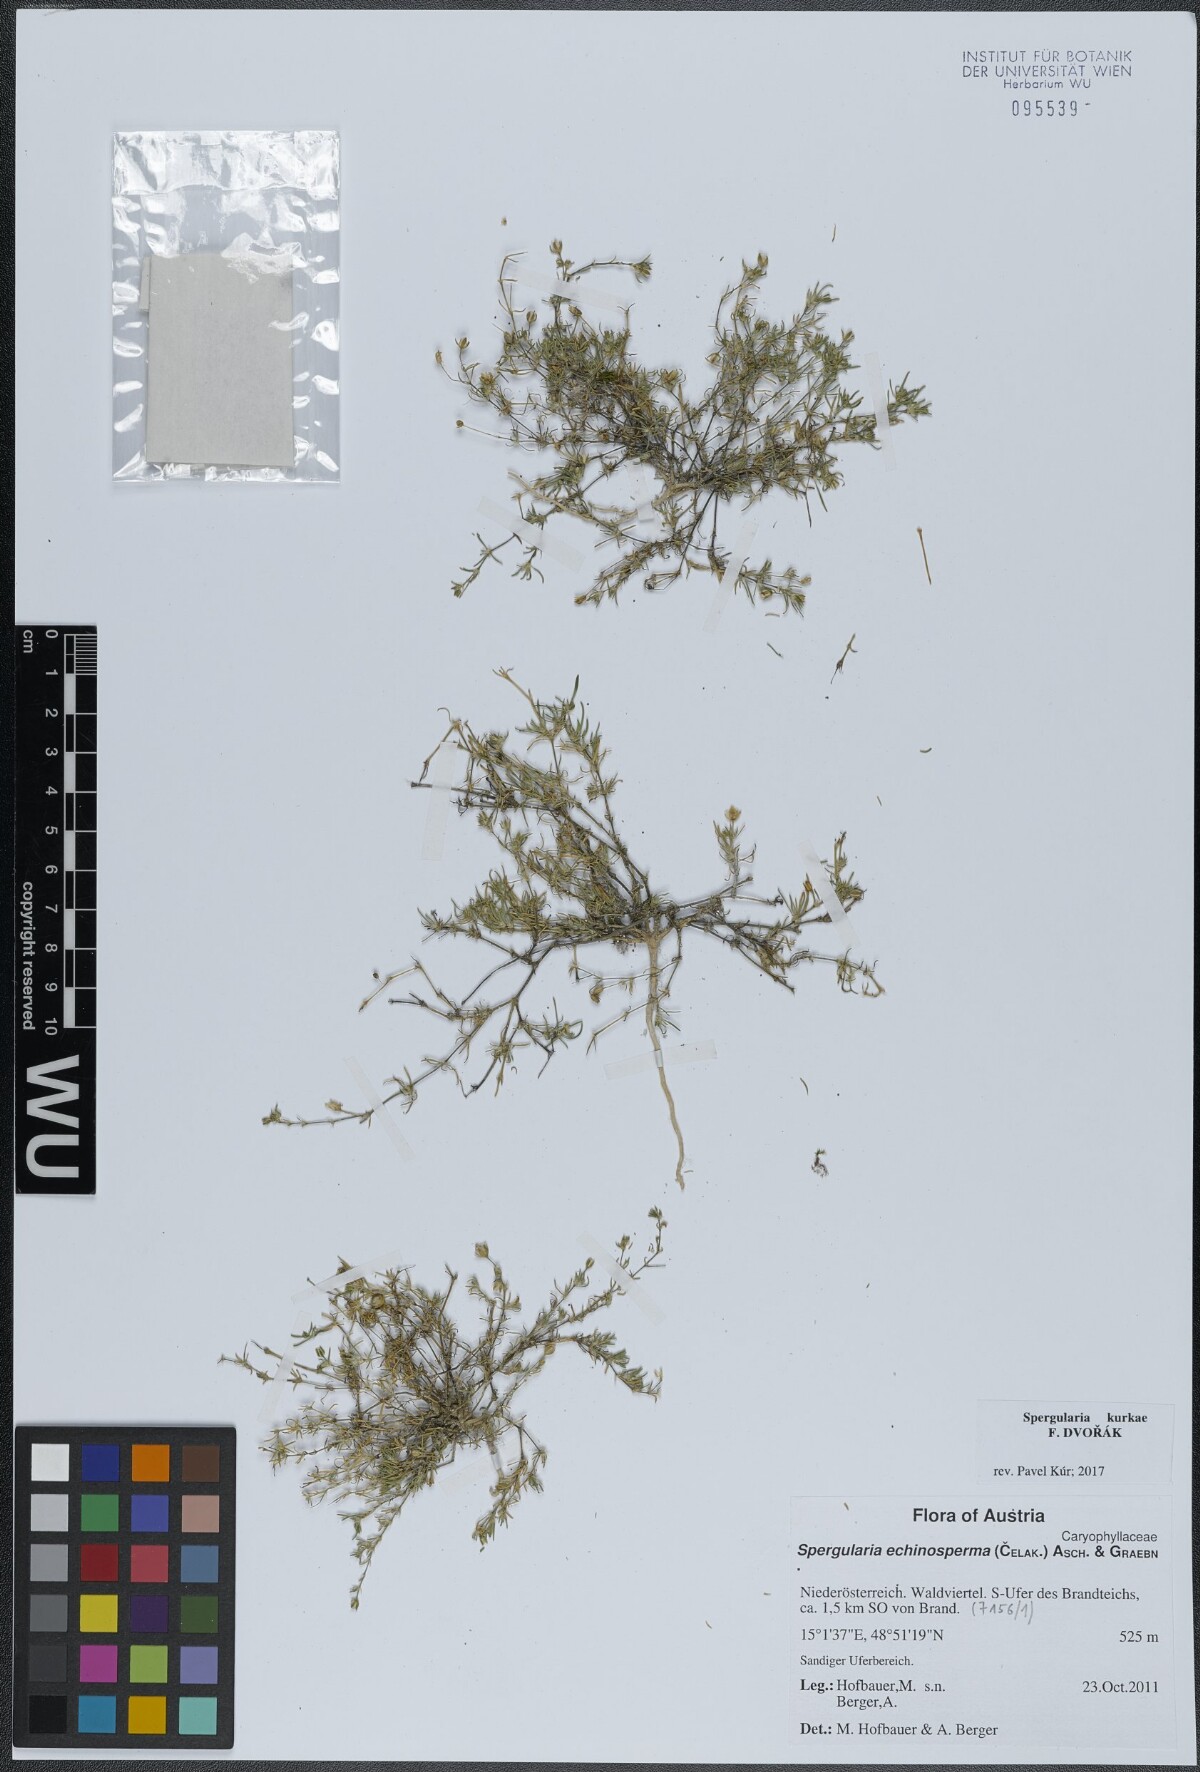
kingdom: Plantae
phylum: Tracheophyta
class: Magnoliopsida
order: Caryophyllales
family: Caryophyllaceae
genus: Spergularia
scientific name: Spergularia kurkae
